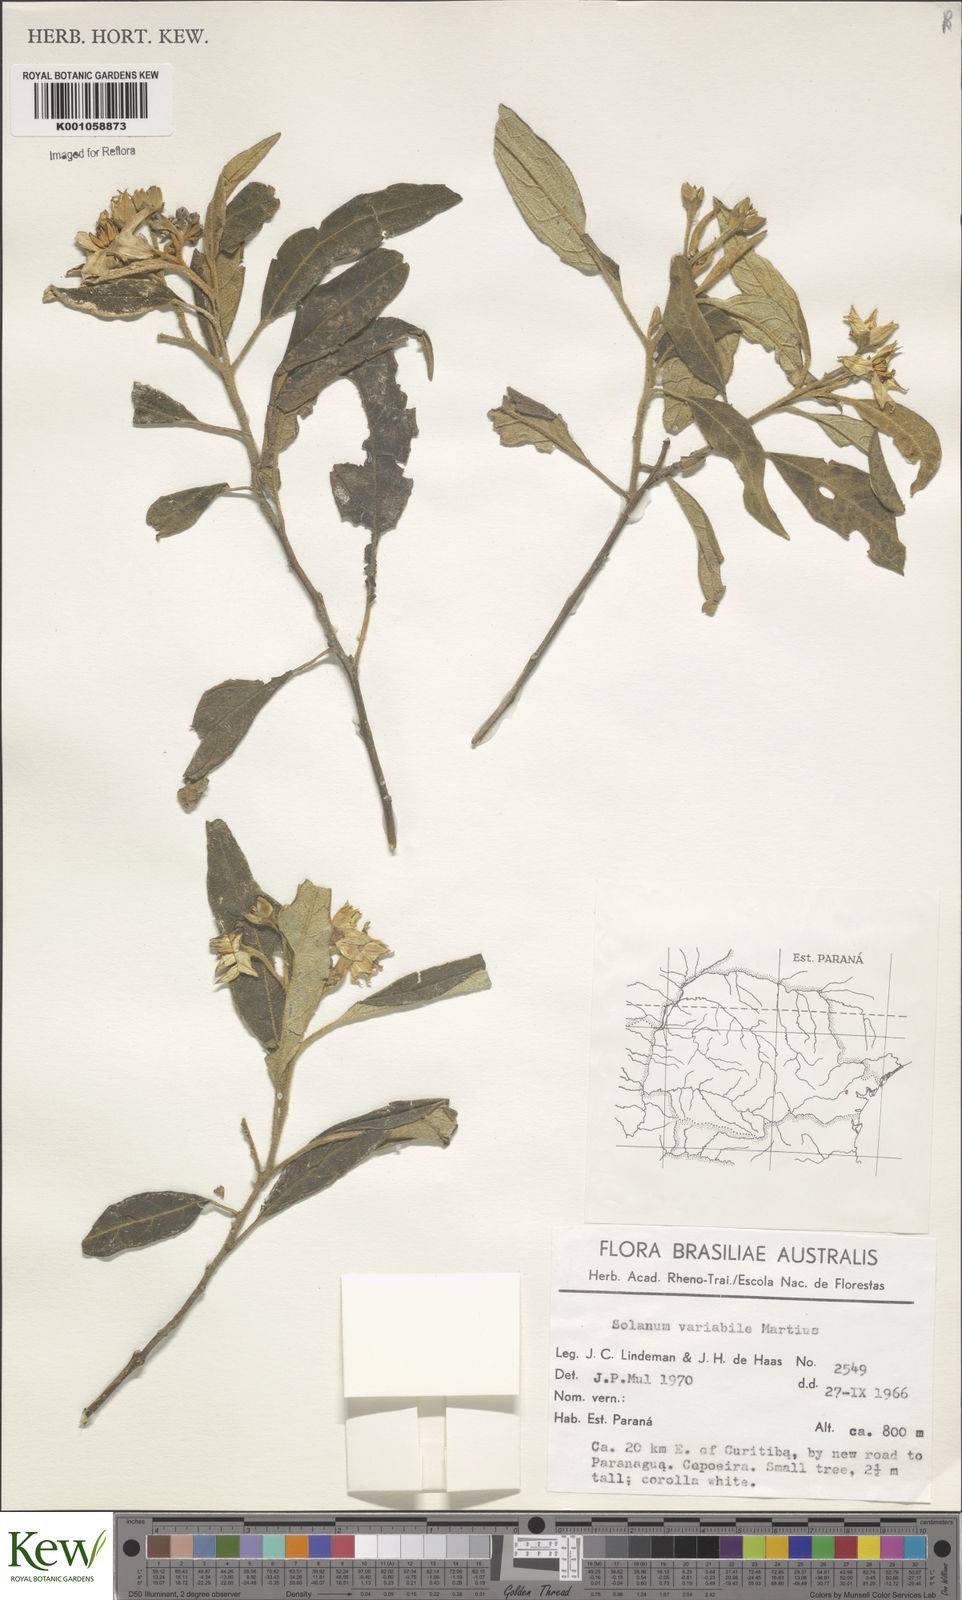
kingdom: Plantae
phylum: Tracheophyta
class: Magnoliopsida
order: Solanales
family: Solanaceae
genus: Solanum
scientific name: Solanum variabile
